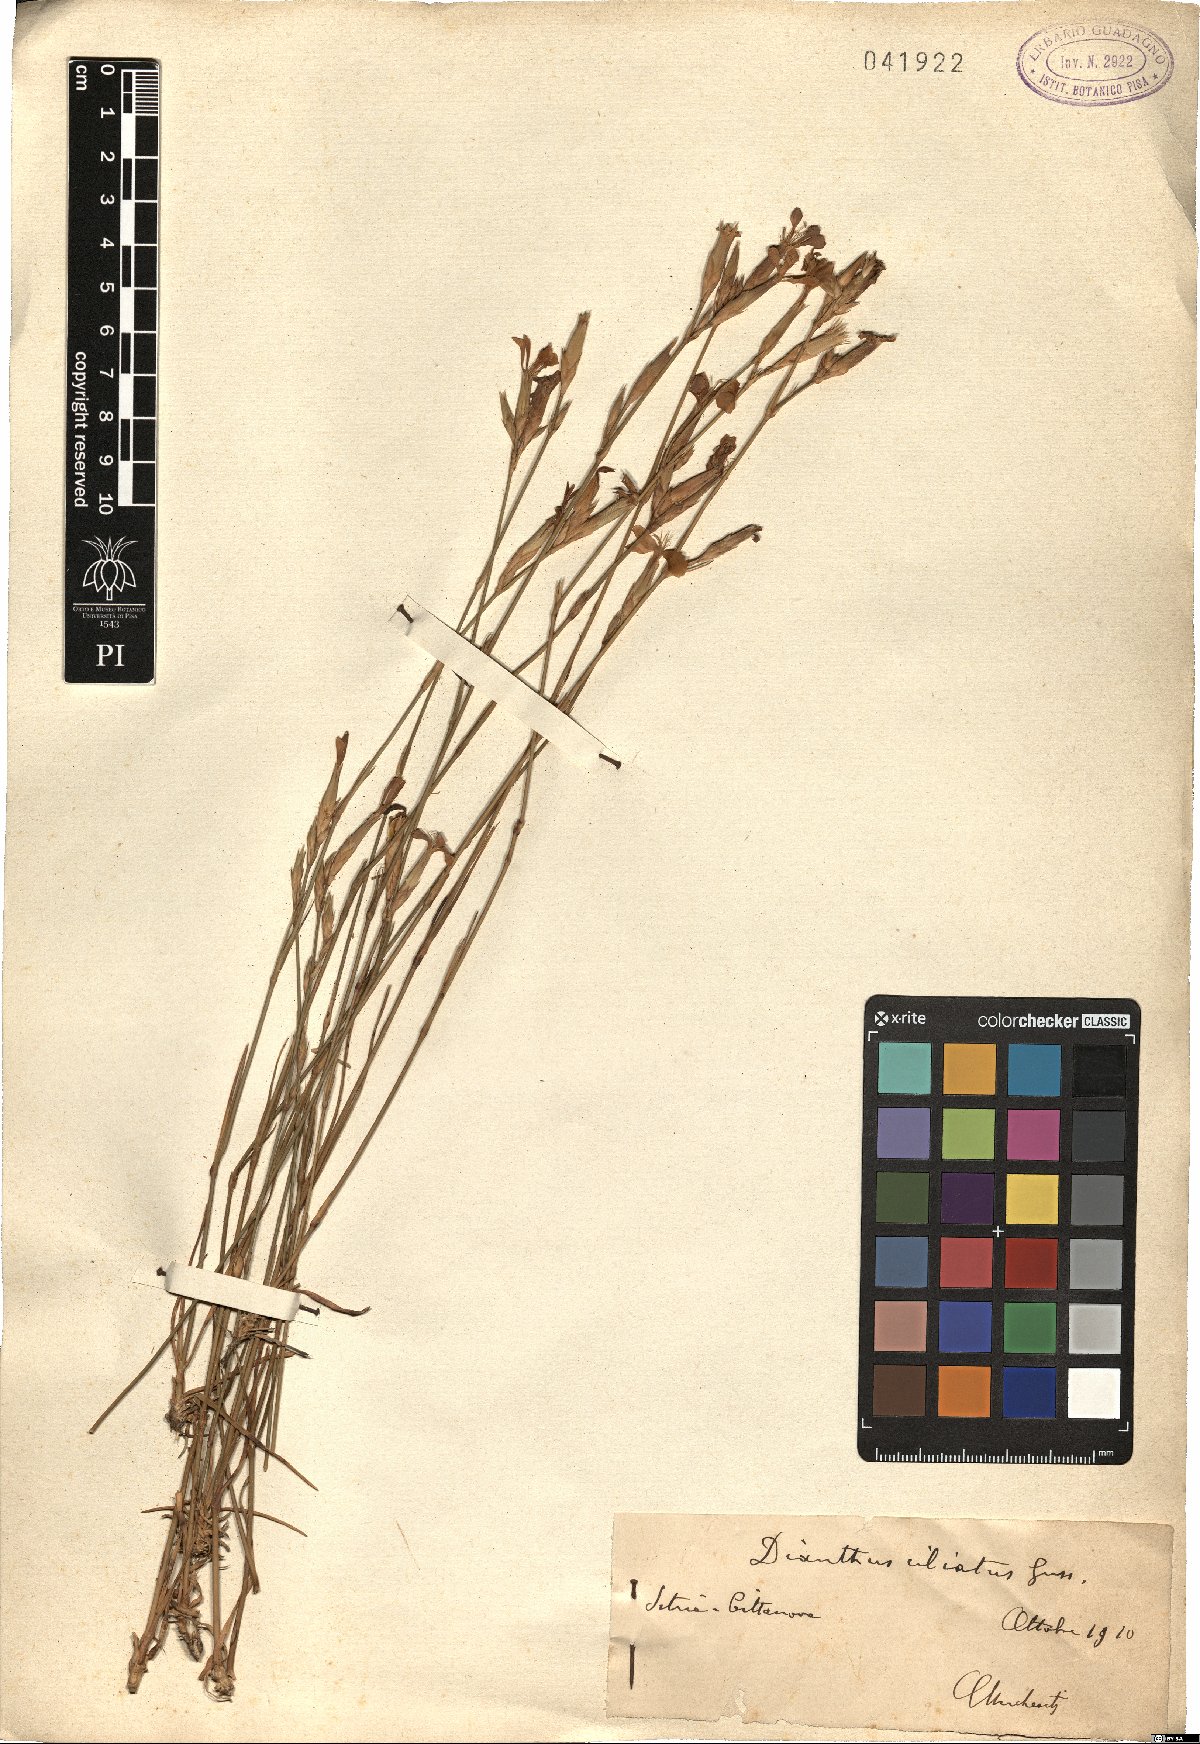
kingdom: Plantae
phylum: Tracheophyta
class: Magnoliopsida
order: Caryophyllales
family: Caryophyllaceae
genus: Dianthus
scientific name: Dianthus ciliatus
